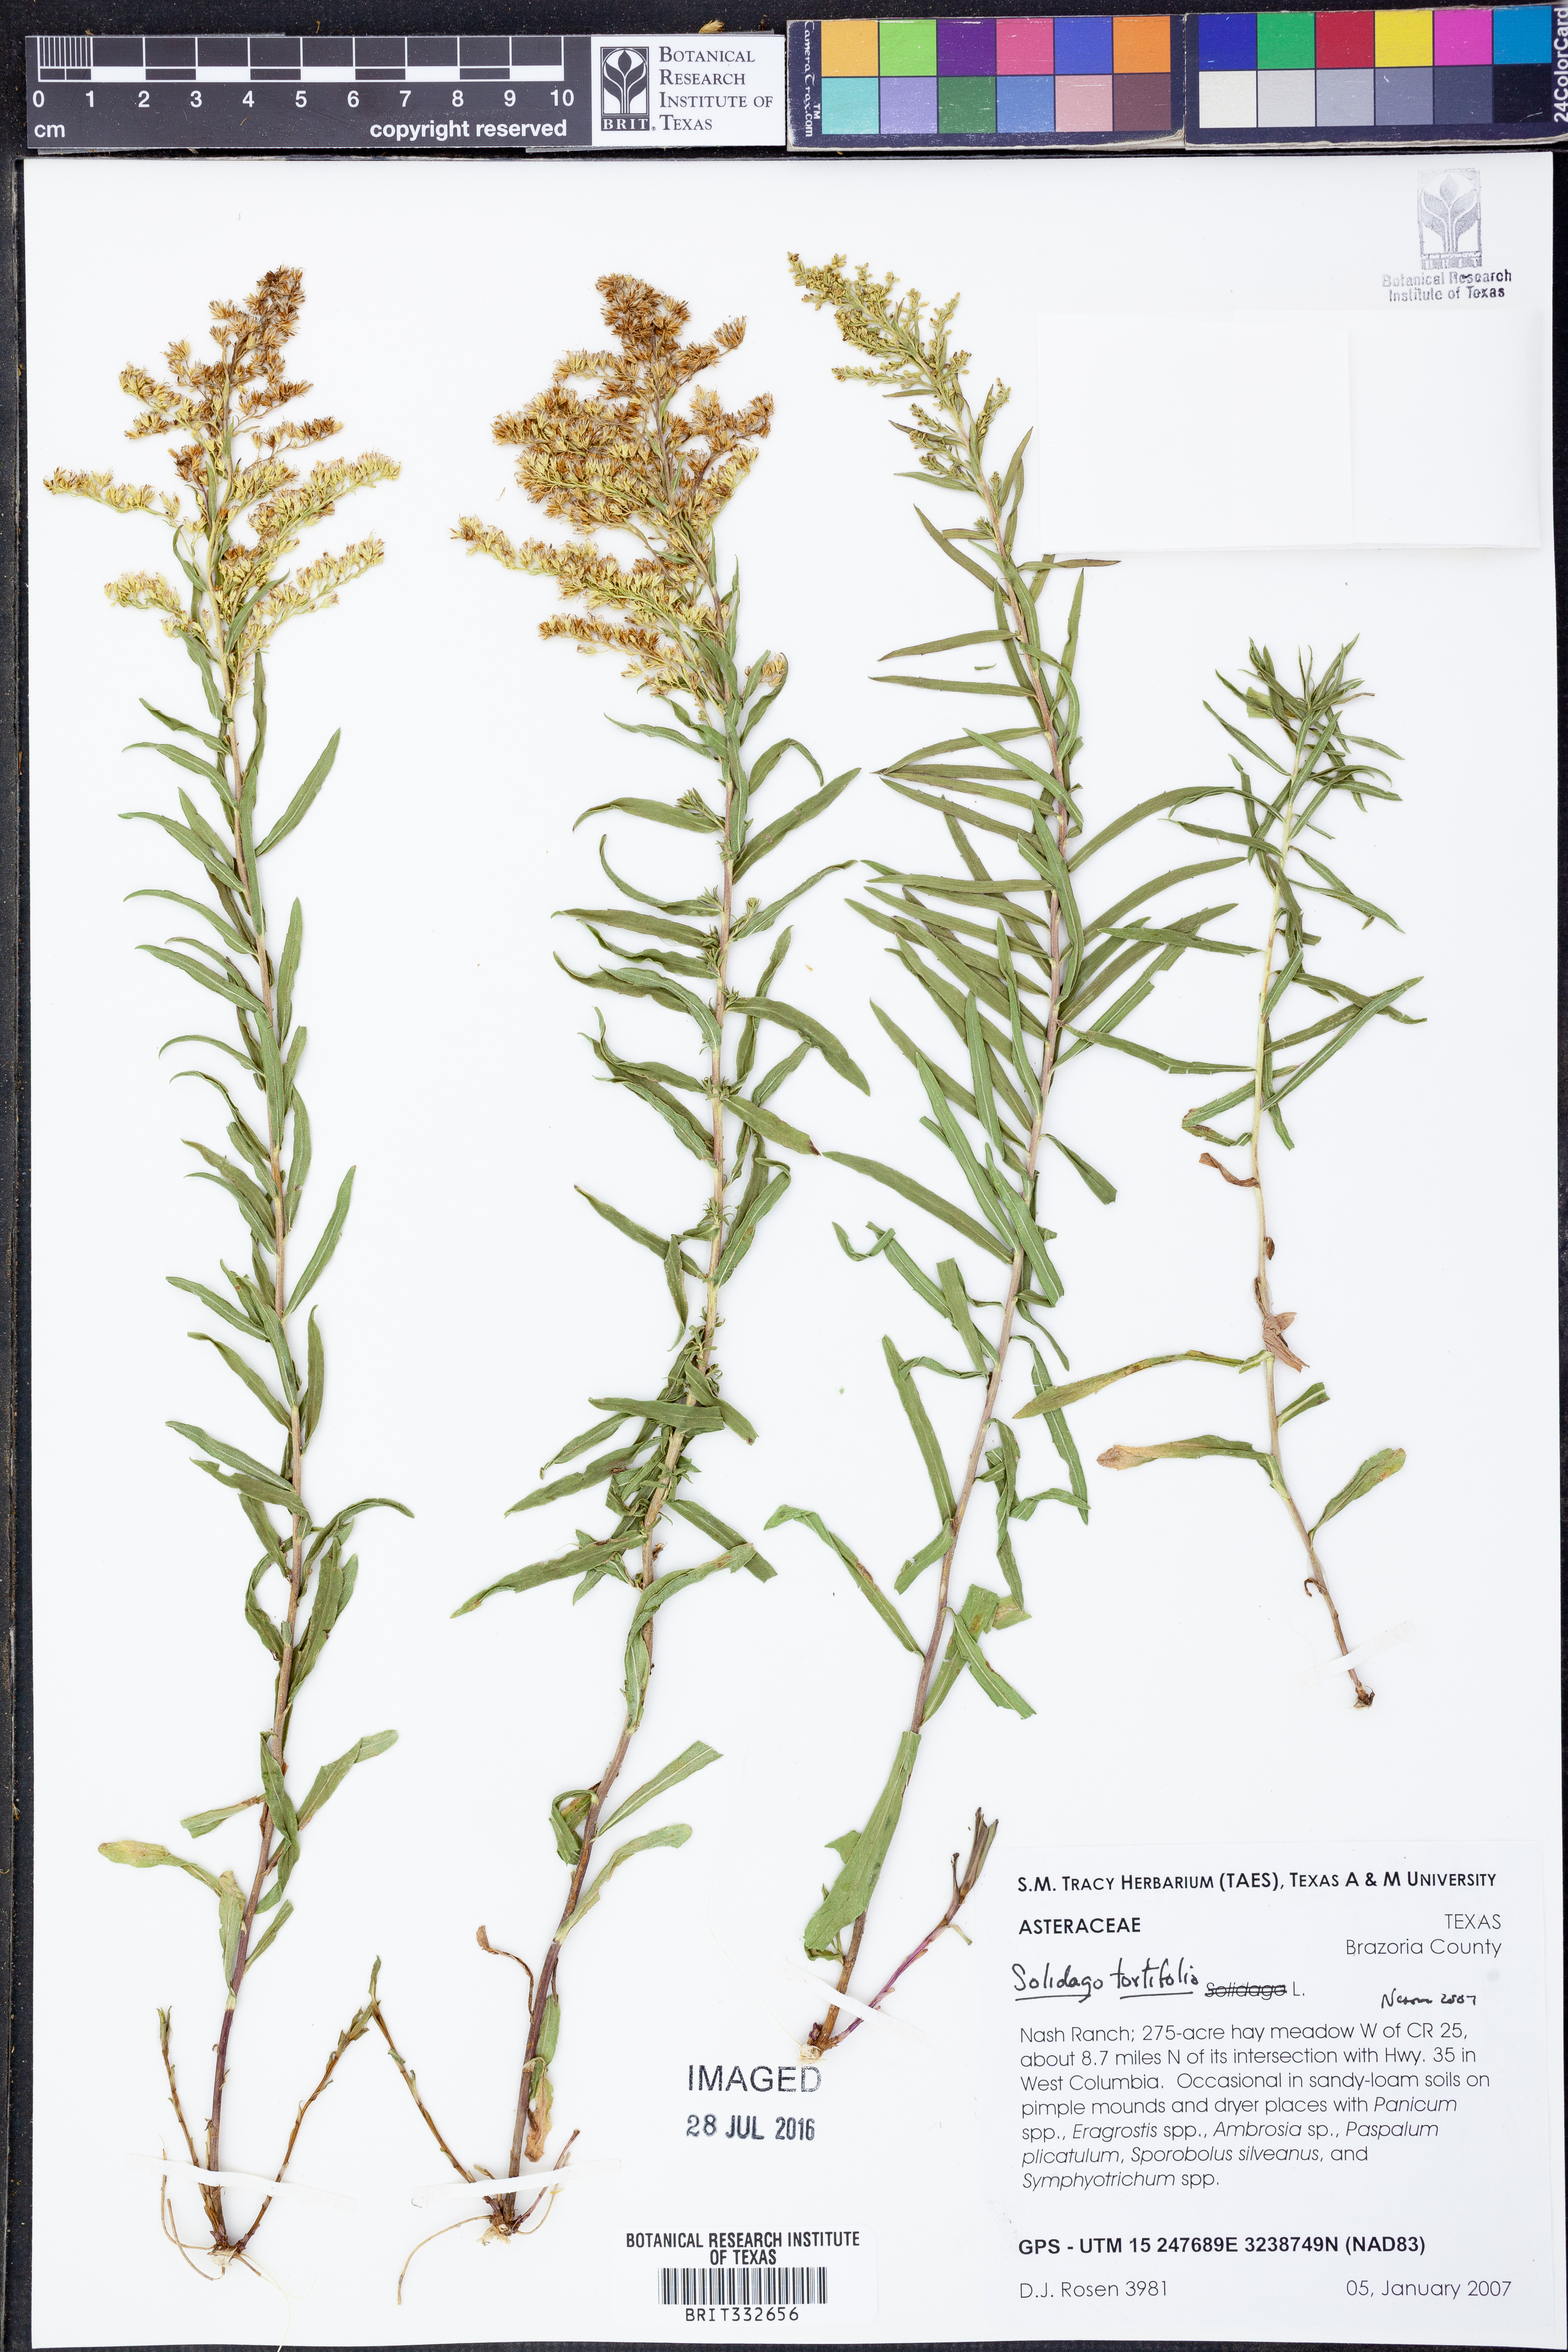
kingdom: Plantae
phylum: Tracheophyta
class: Magnoliopsida
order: Asterales
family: Asteraceae
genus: Solidago
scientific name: Solidago tortifolia
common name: Twisted-leaf goldenrod
